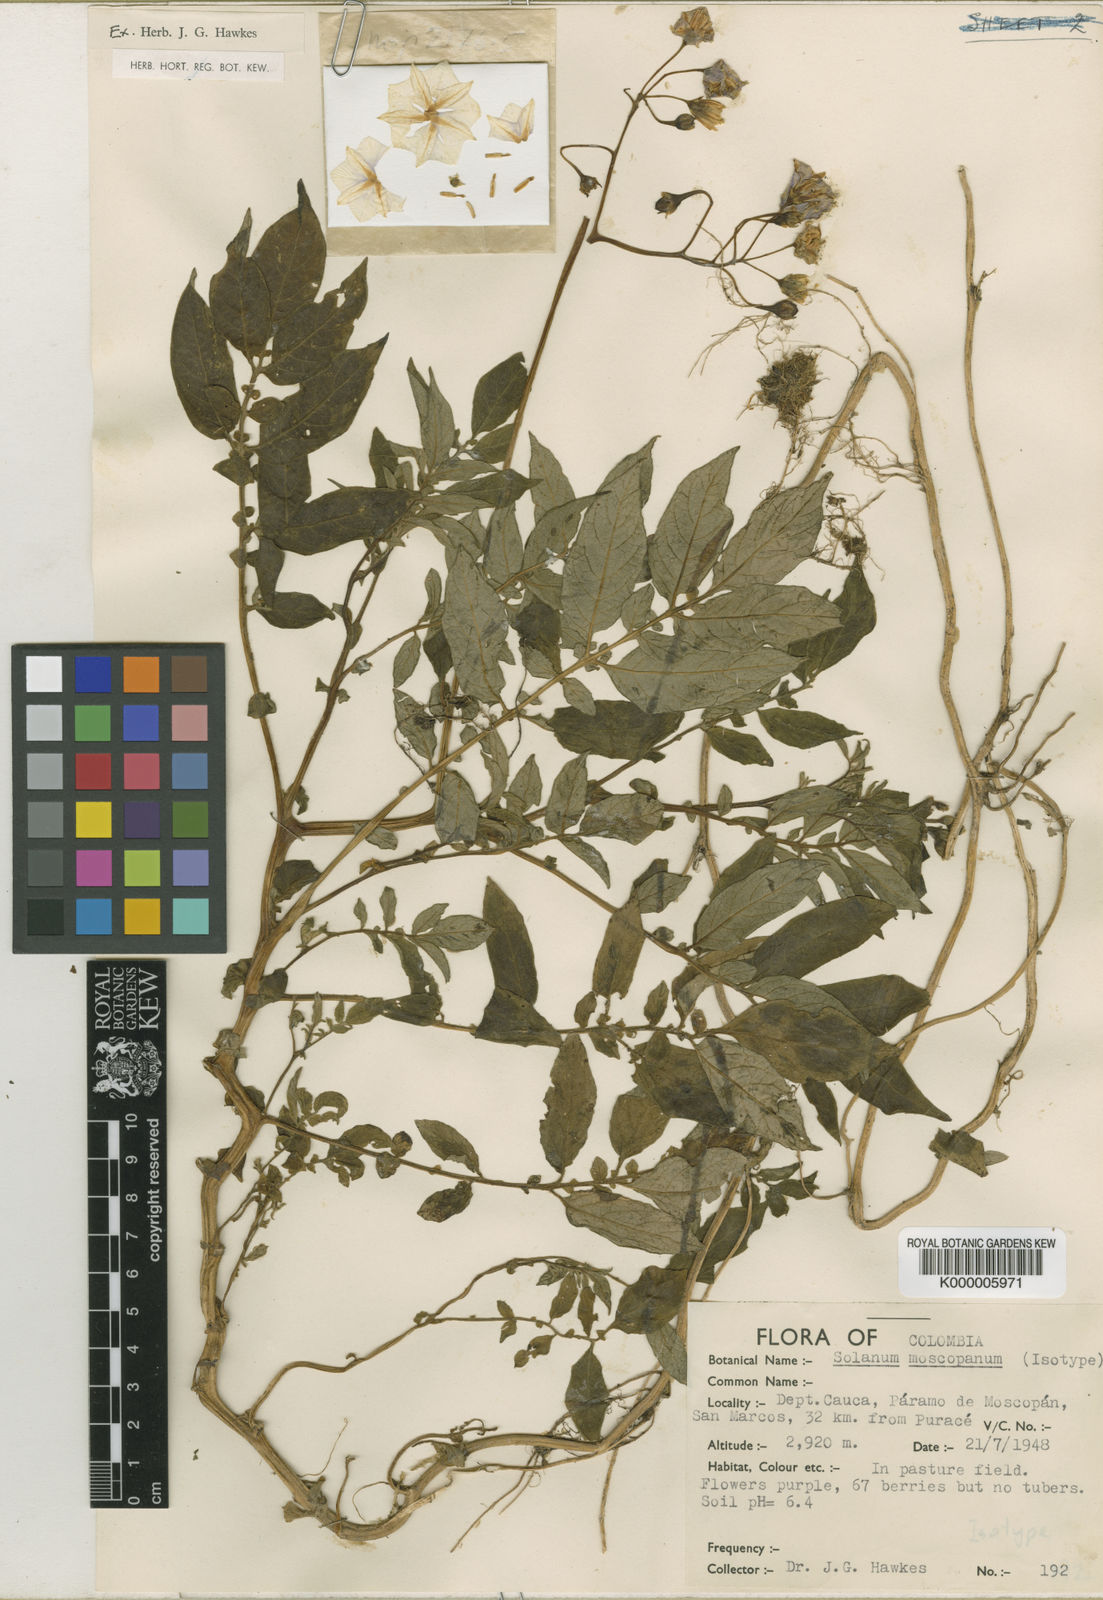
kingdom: Plantae
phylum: Tracheophyta
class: Magnoliopsida
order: Solanales
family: Solanaceae
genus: Solanum
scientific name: Solanum colombianum
